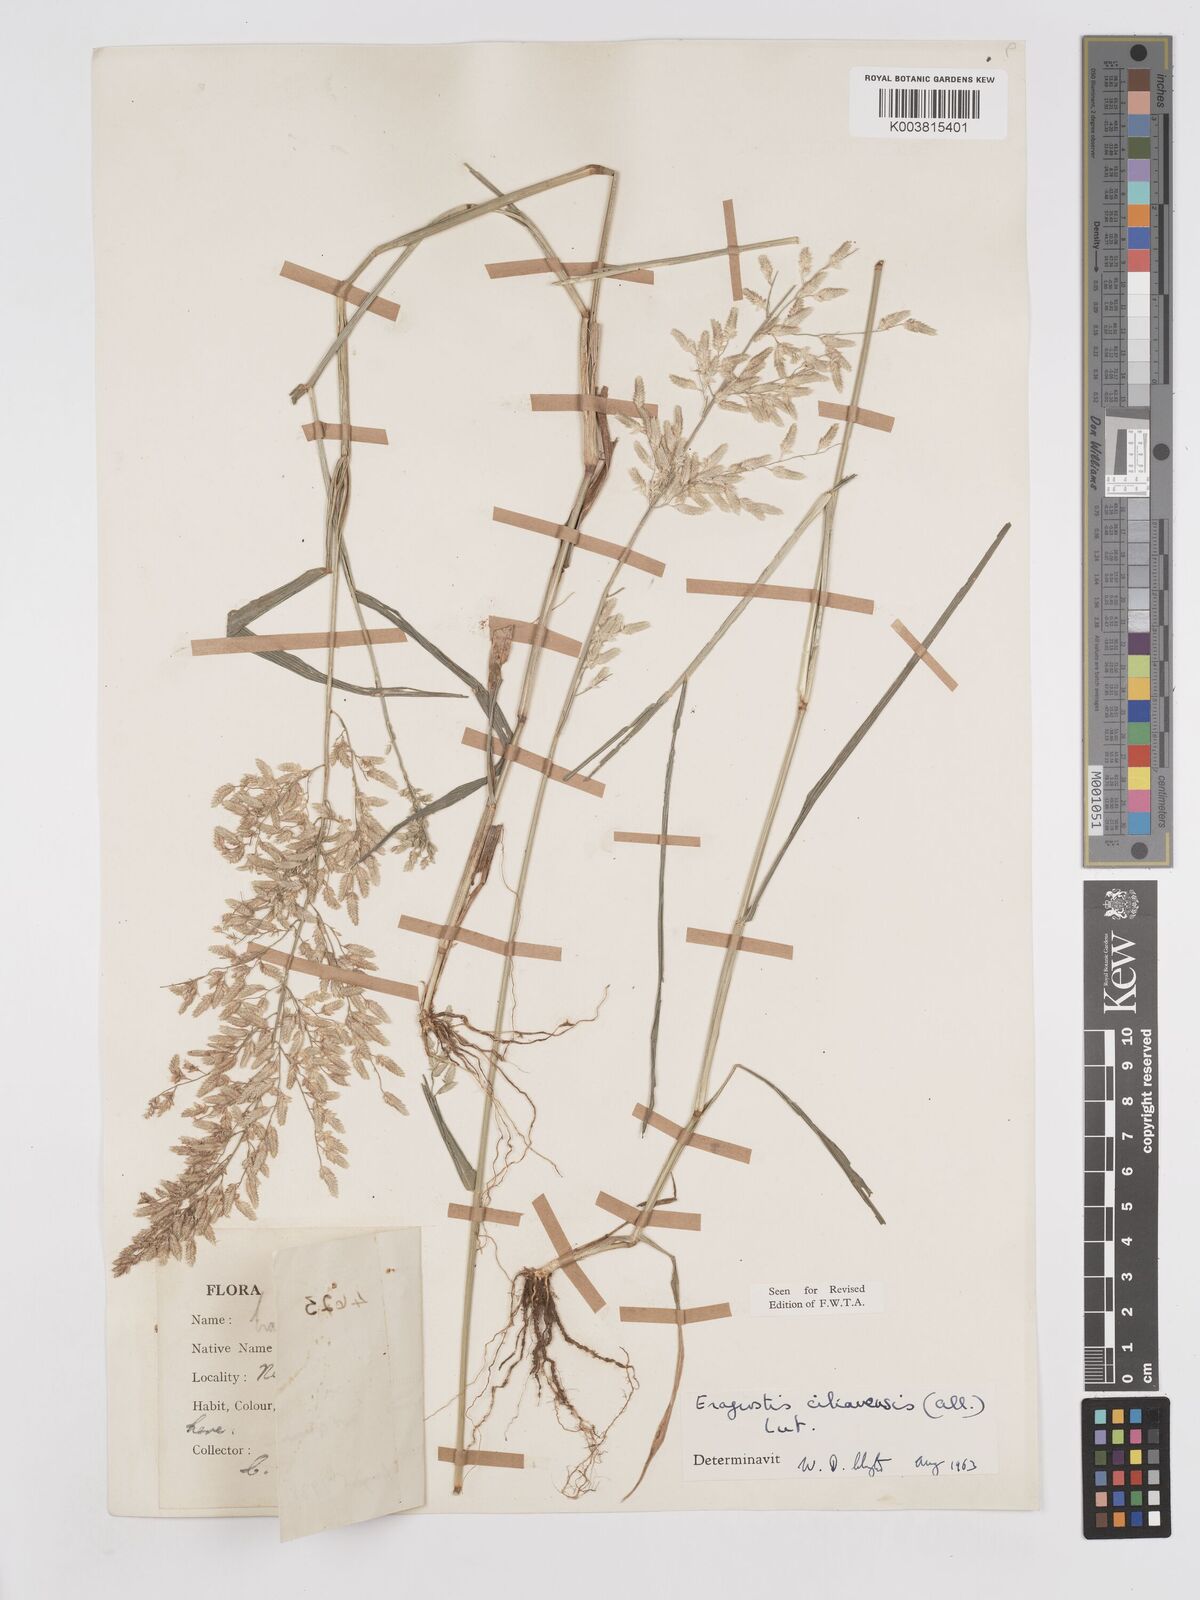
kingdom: Plantae
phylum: Tracheophyta
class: Liliopsida
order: Poales
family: Poaceae
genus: Eragrostis
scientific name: Eragrostis cilianensis
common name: Stinkgrass
